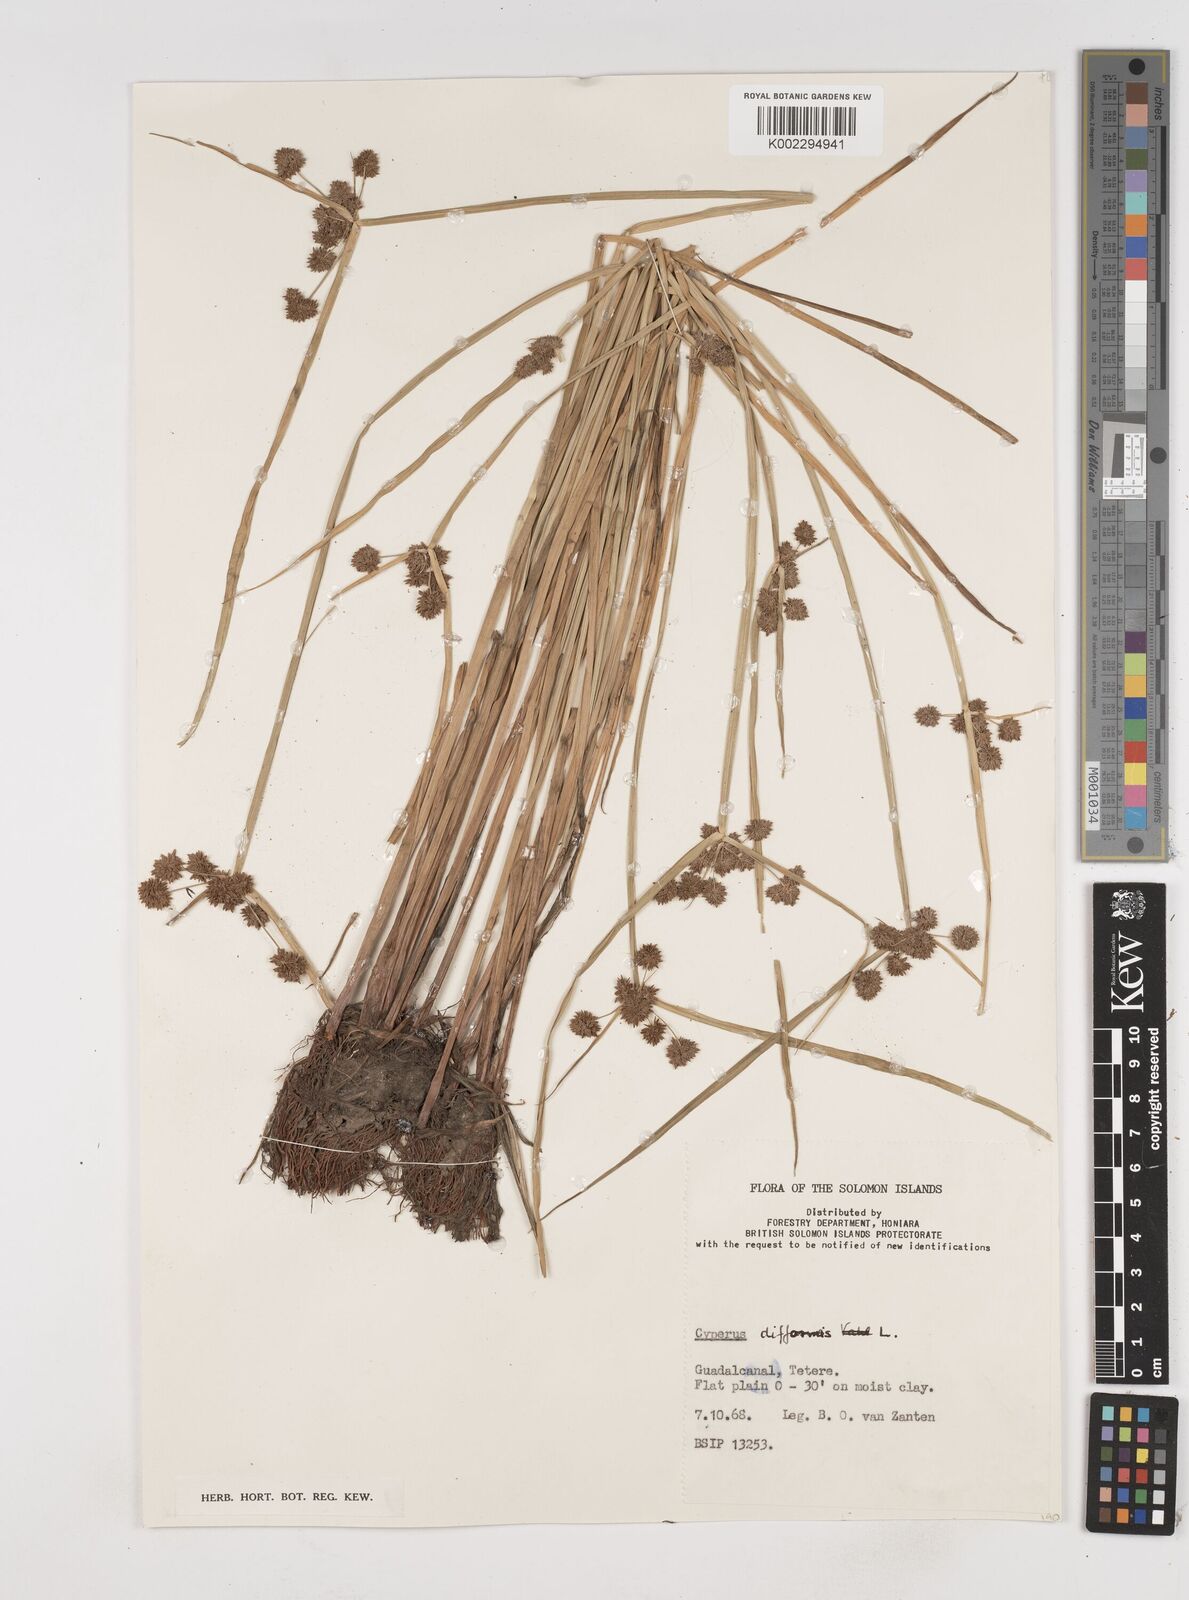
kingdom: Plantae
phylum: Tracheophyta
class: Liliopsida
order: Poales
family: Cyperaceae
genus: Cyperus
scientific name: Cyperus difformis
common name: Variable flatsedge
